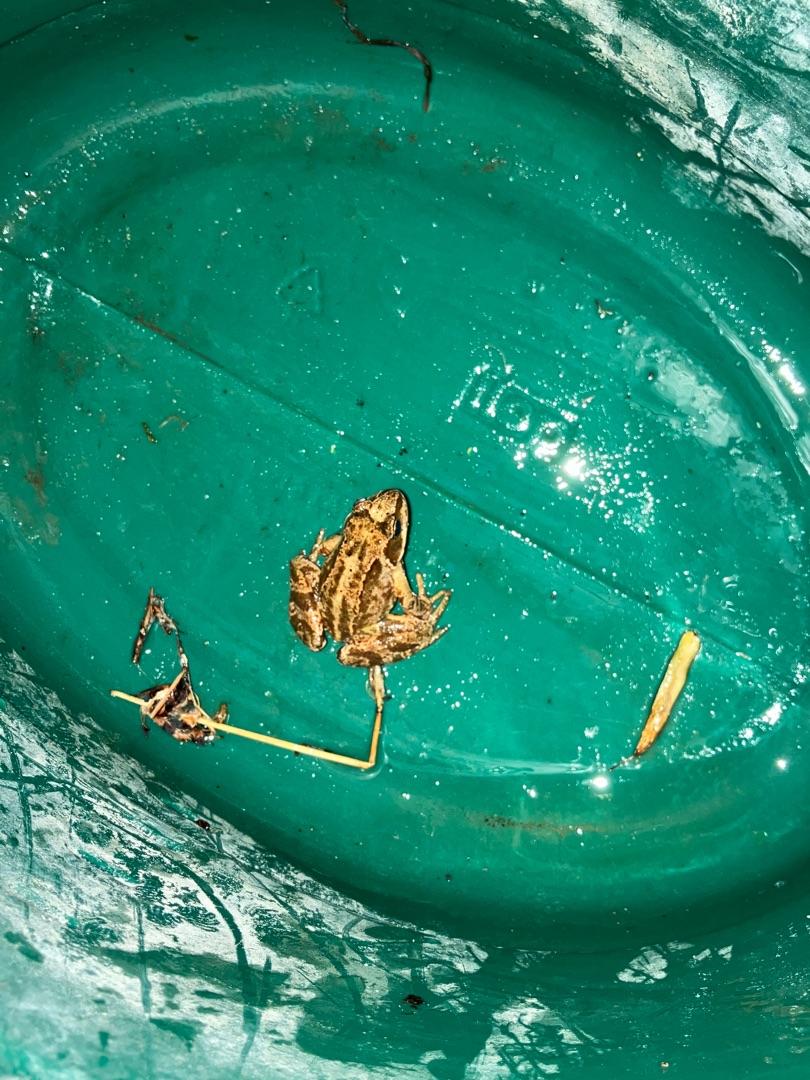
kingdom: Animalia
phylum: Chordata
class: Amphibia
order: Anura
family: Ranidae
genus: Rana
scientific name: Rana temporaria
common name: Butsnudet frø
